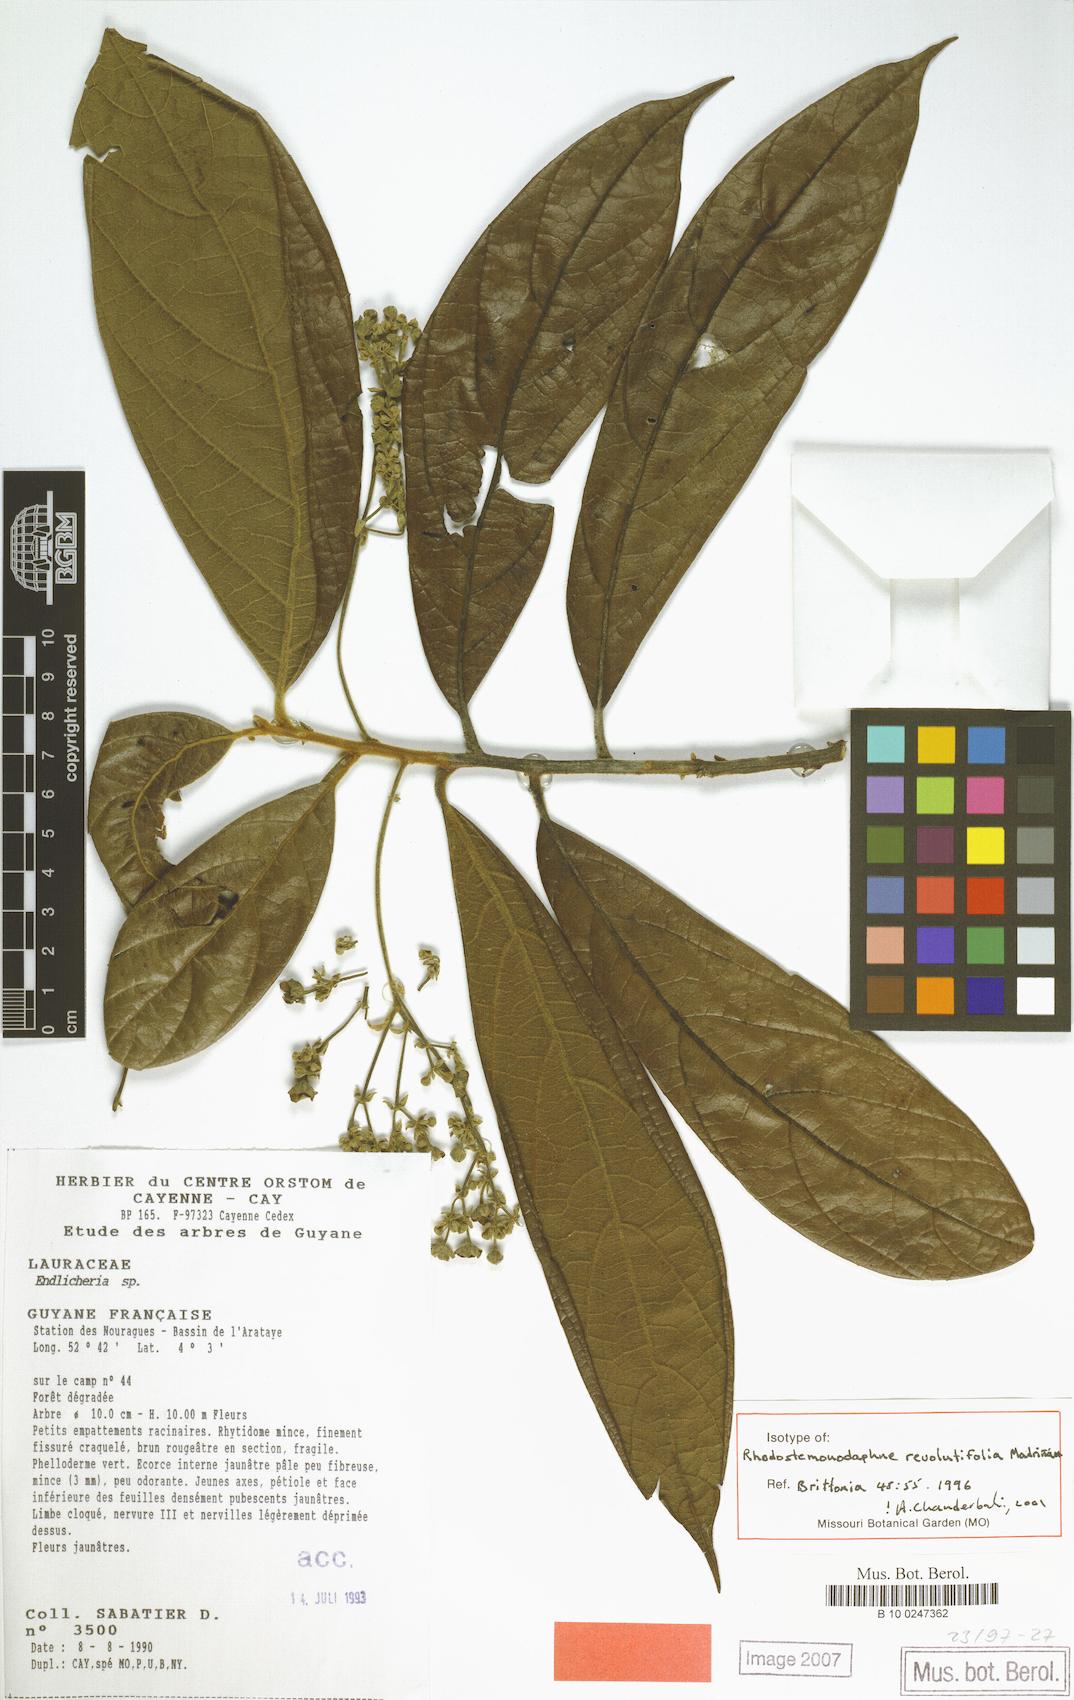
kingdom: Plantae
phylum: Tracheophyta
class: Magnoliopsida
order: Laurales
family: Lauraceae
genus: Rhodostemonodaphne
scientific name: Rhodostemonodaphne revolutifolia
